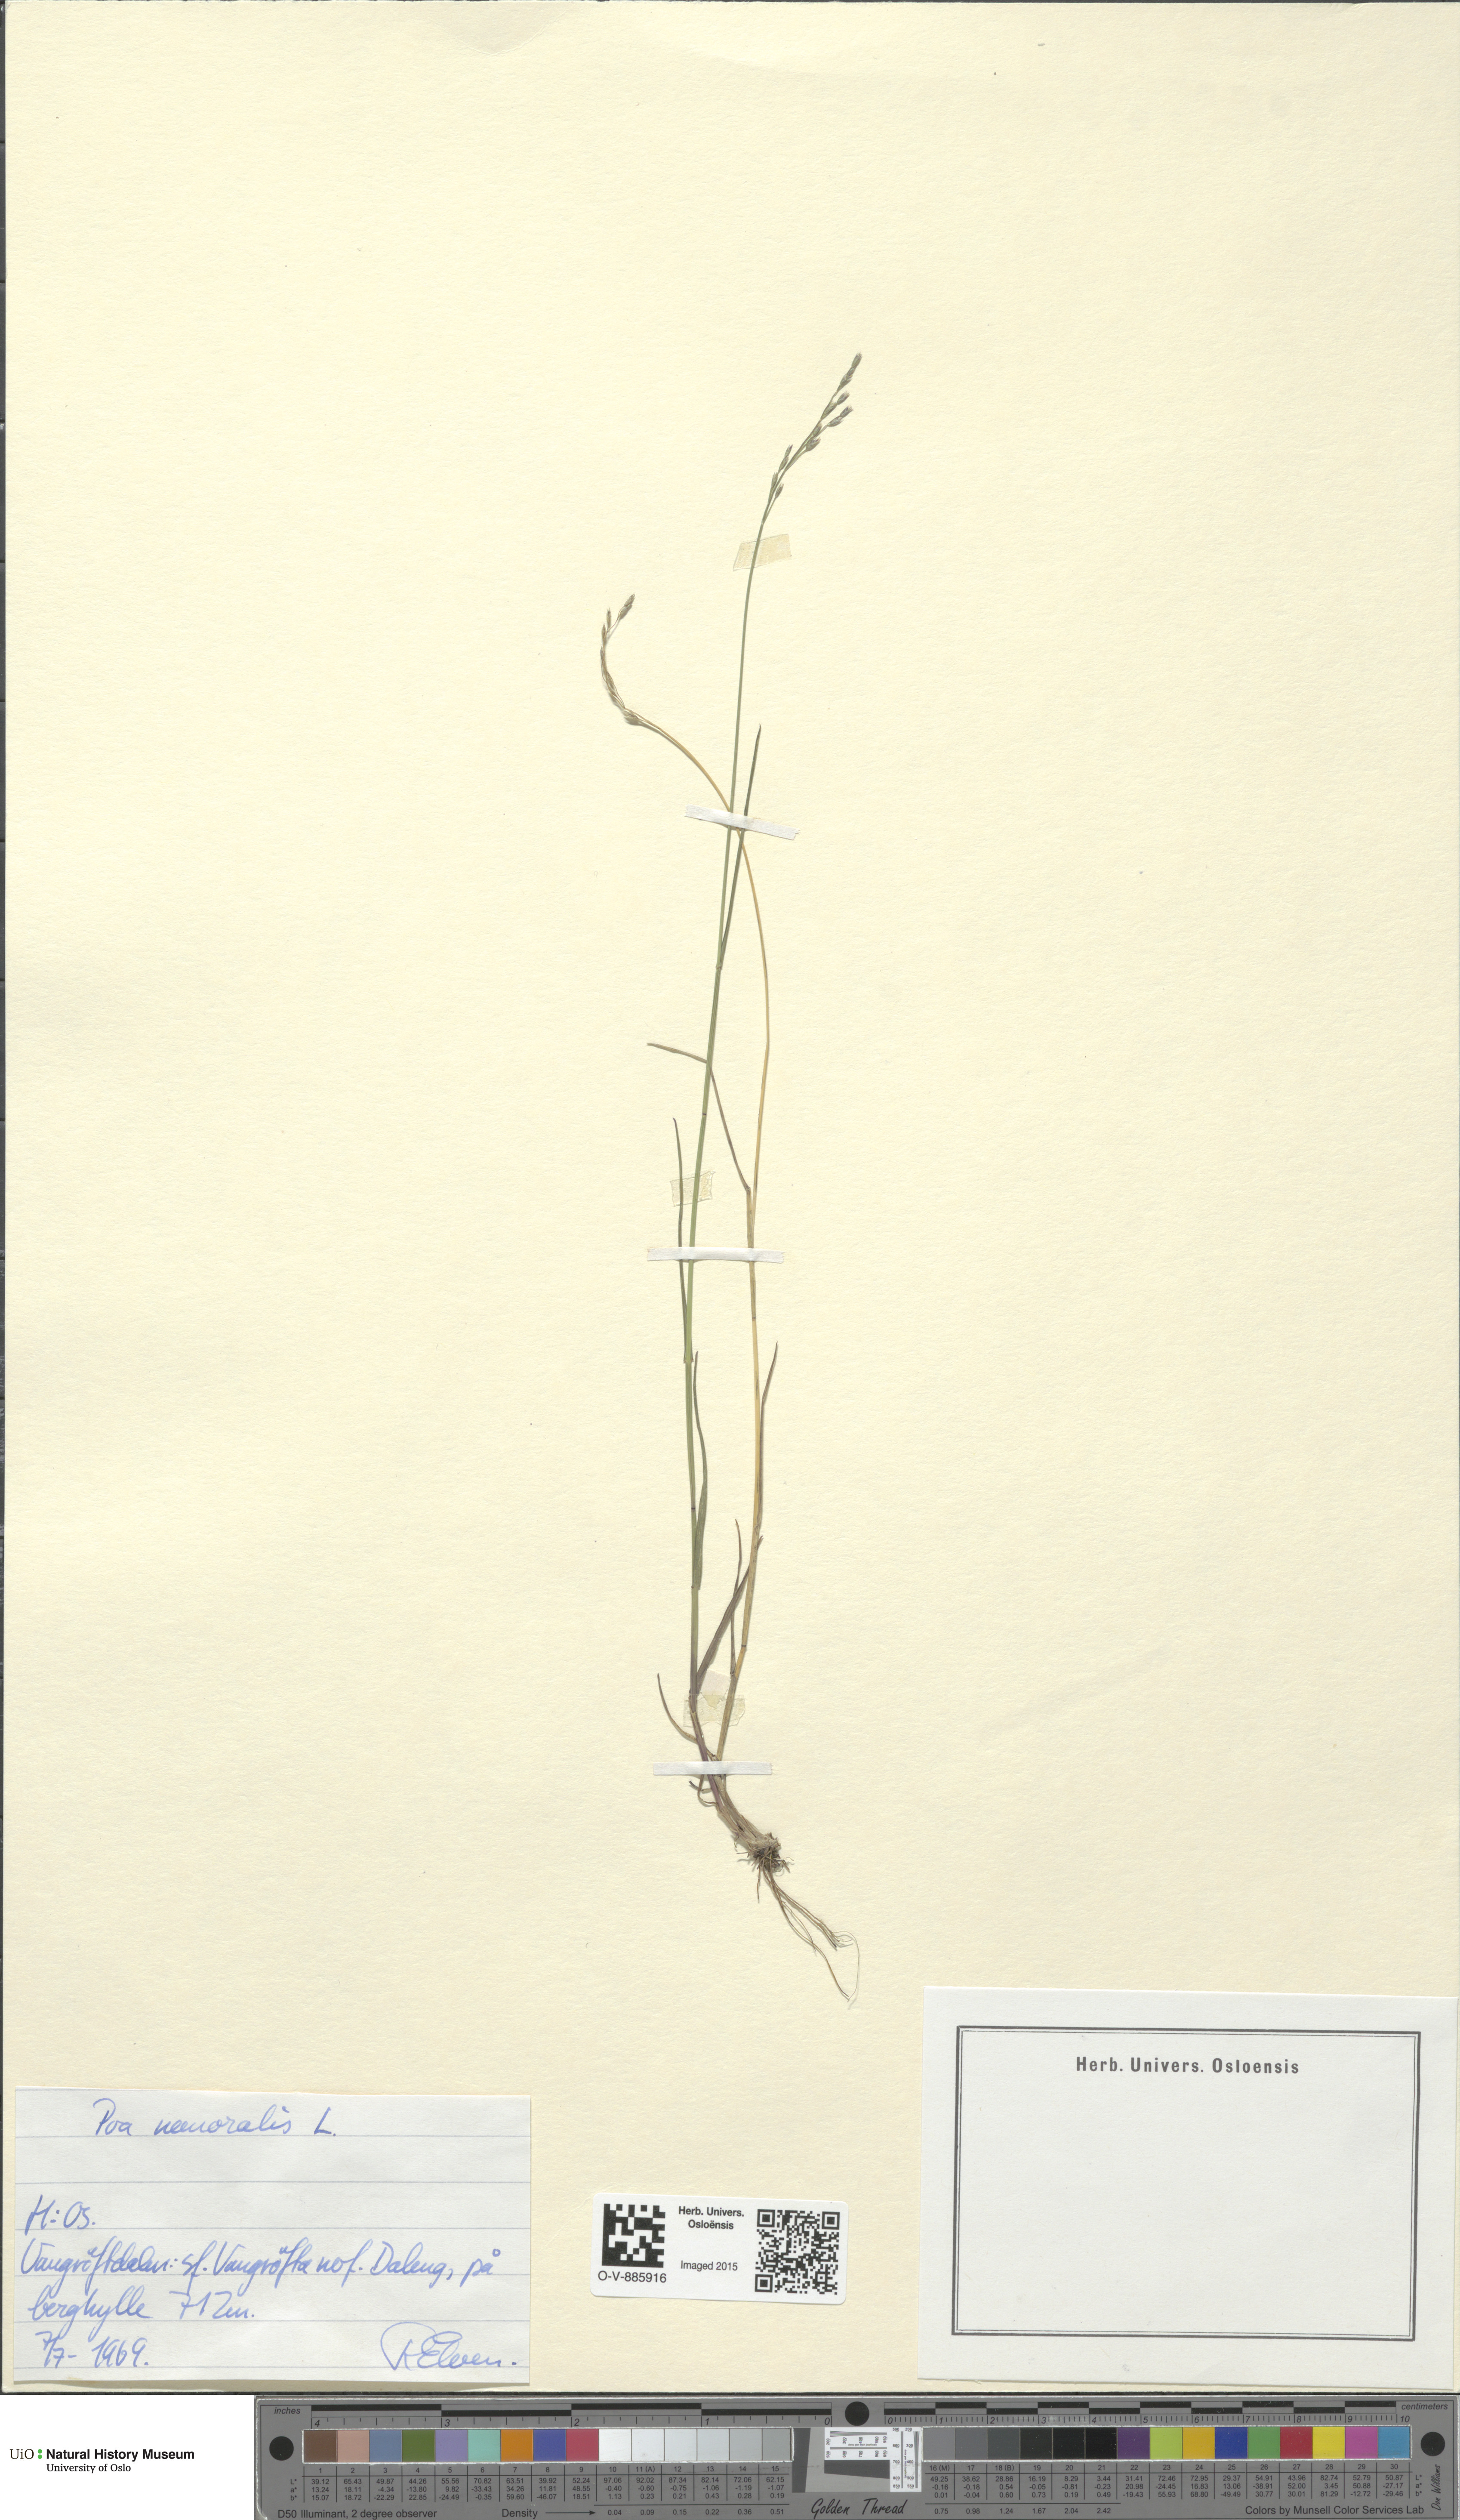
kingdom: Plantae
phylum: Tracheophyta
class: Liliopsida
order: Poales
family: Poaceae
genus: Poa
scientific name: Poa nemoralis
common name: Wood bluegrass
